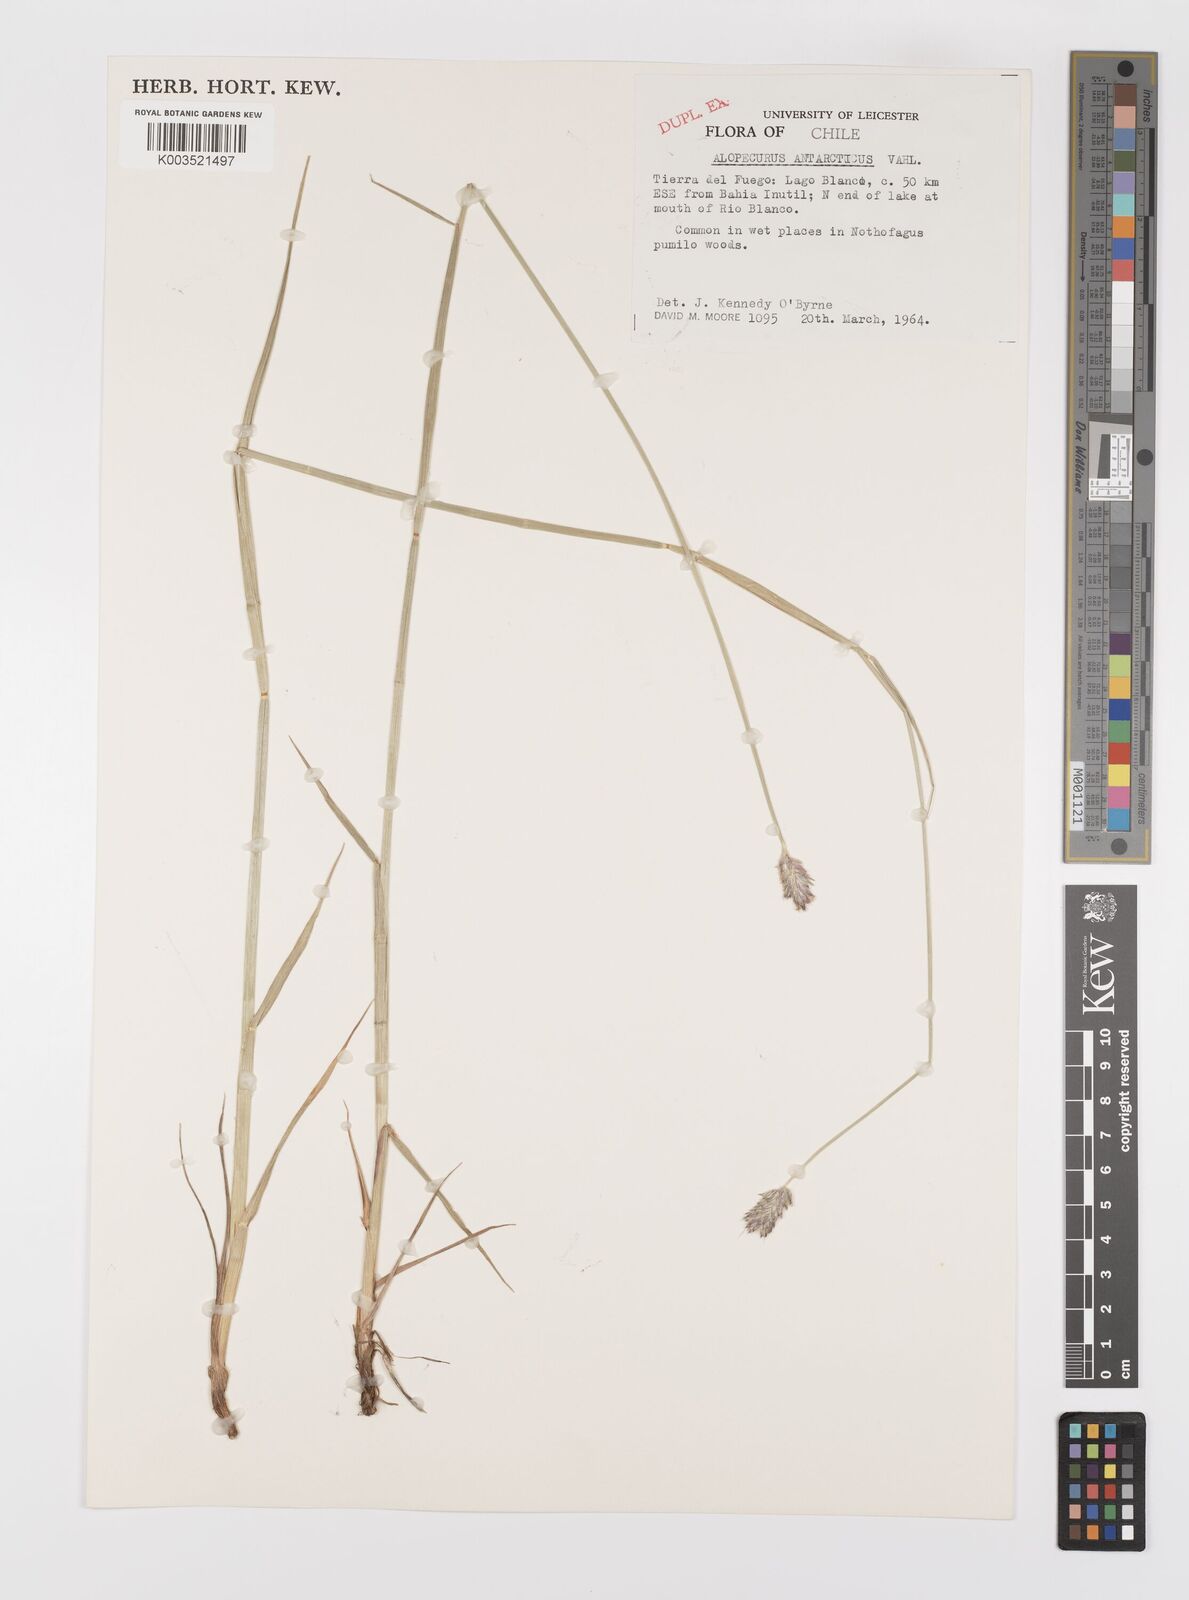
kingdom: Plantae
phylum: Tracheophyta
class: Liliopsida
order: Poales
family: Poaceae
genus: Alopecurus
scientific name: Alopecurus magellanicus
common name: Alpine foxtail
